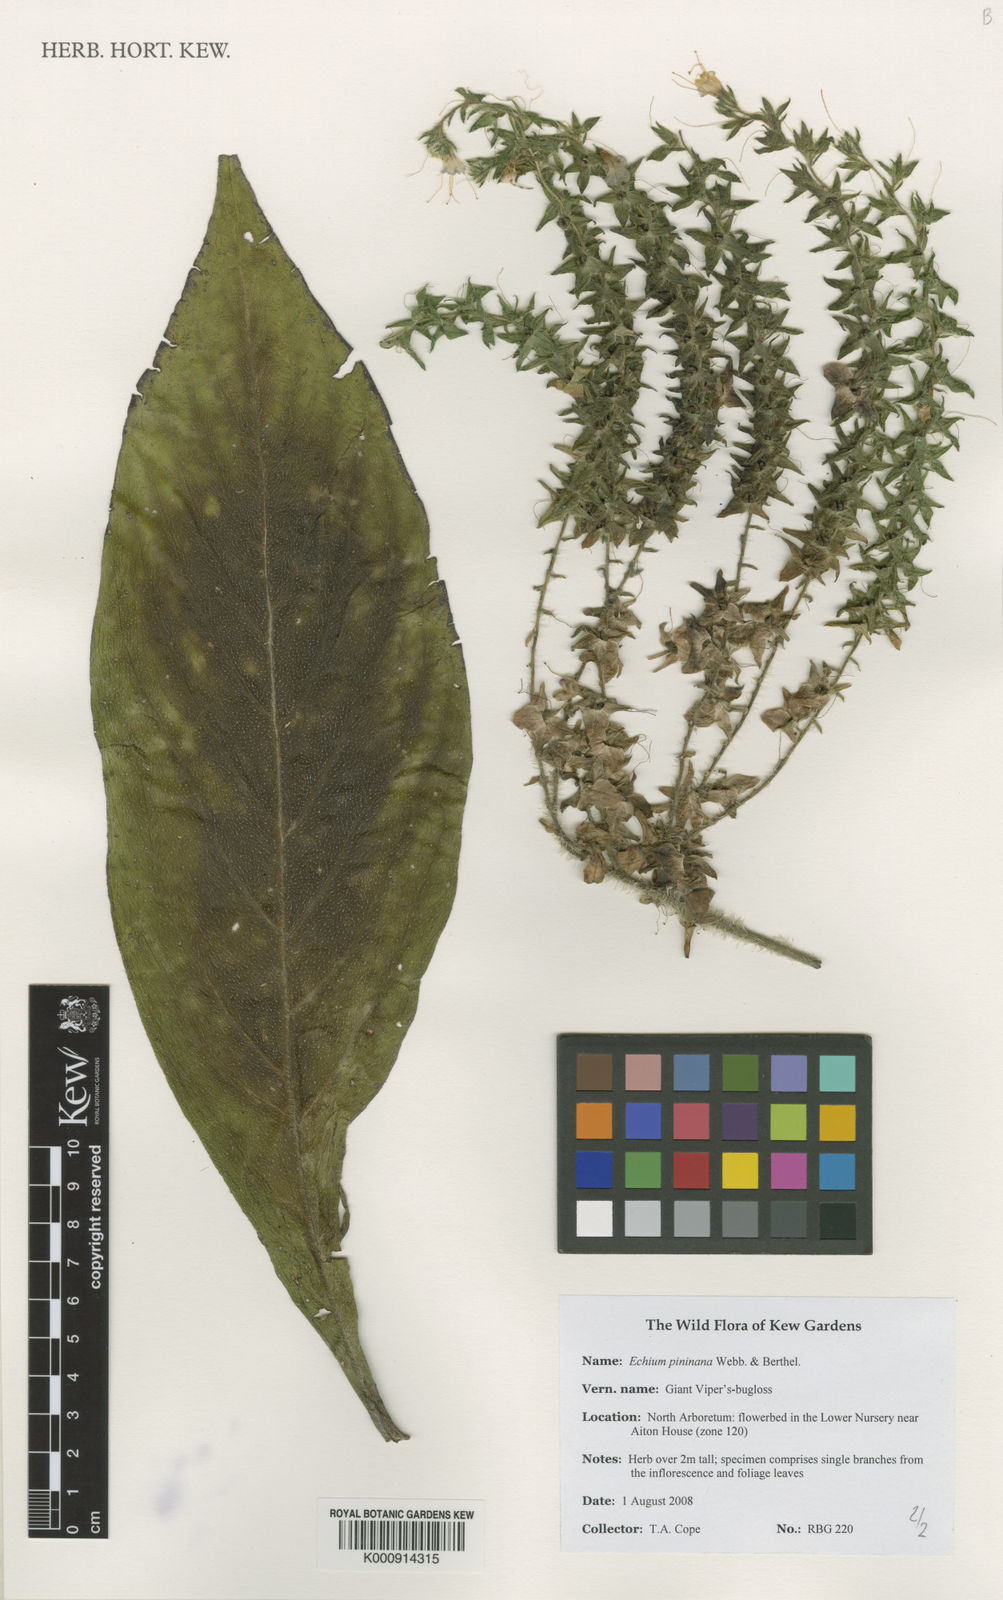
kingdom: Plantae
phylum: Tracheophyta
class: Magnoliopsida
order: Boraginales
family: Boraginaceae
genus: Echium
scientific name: Echium pininana
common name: Giant viper's-bugloss
